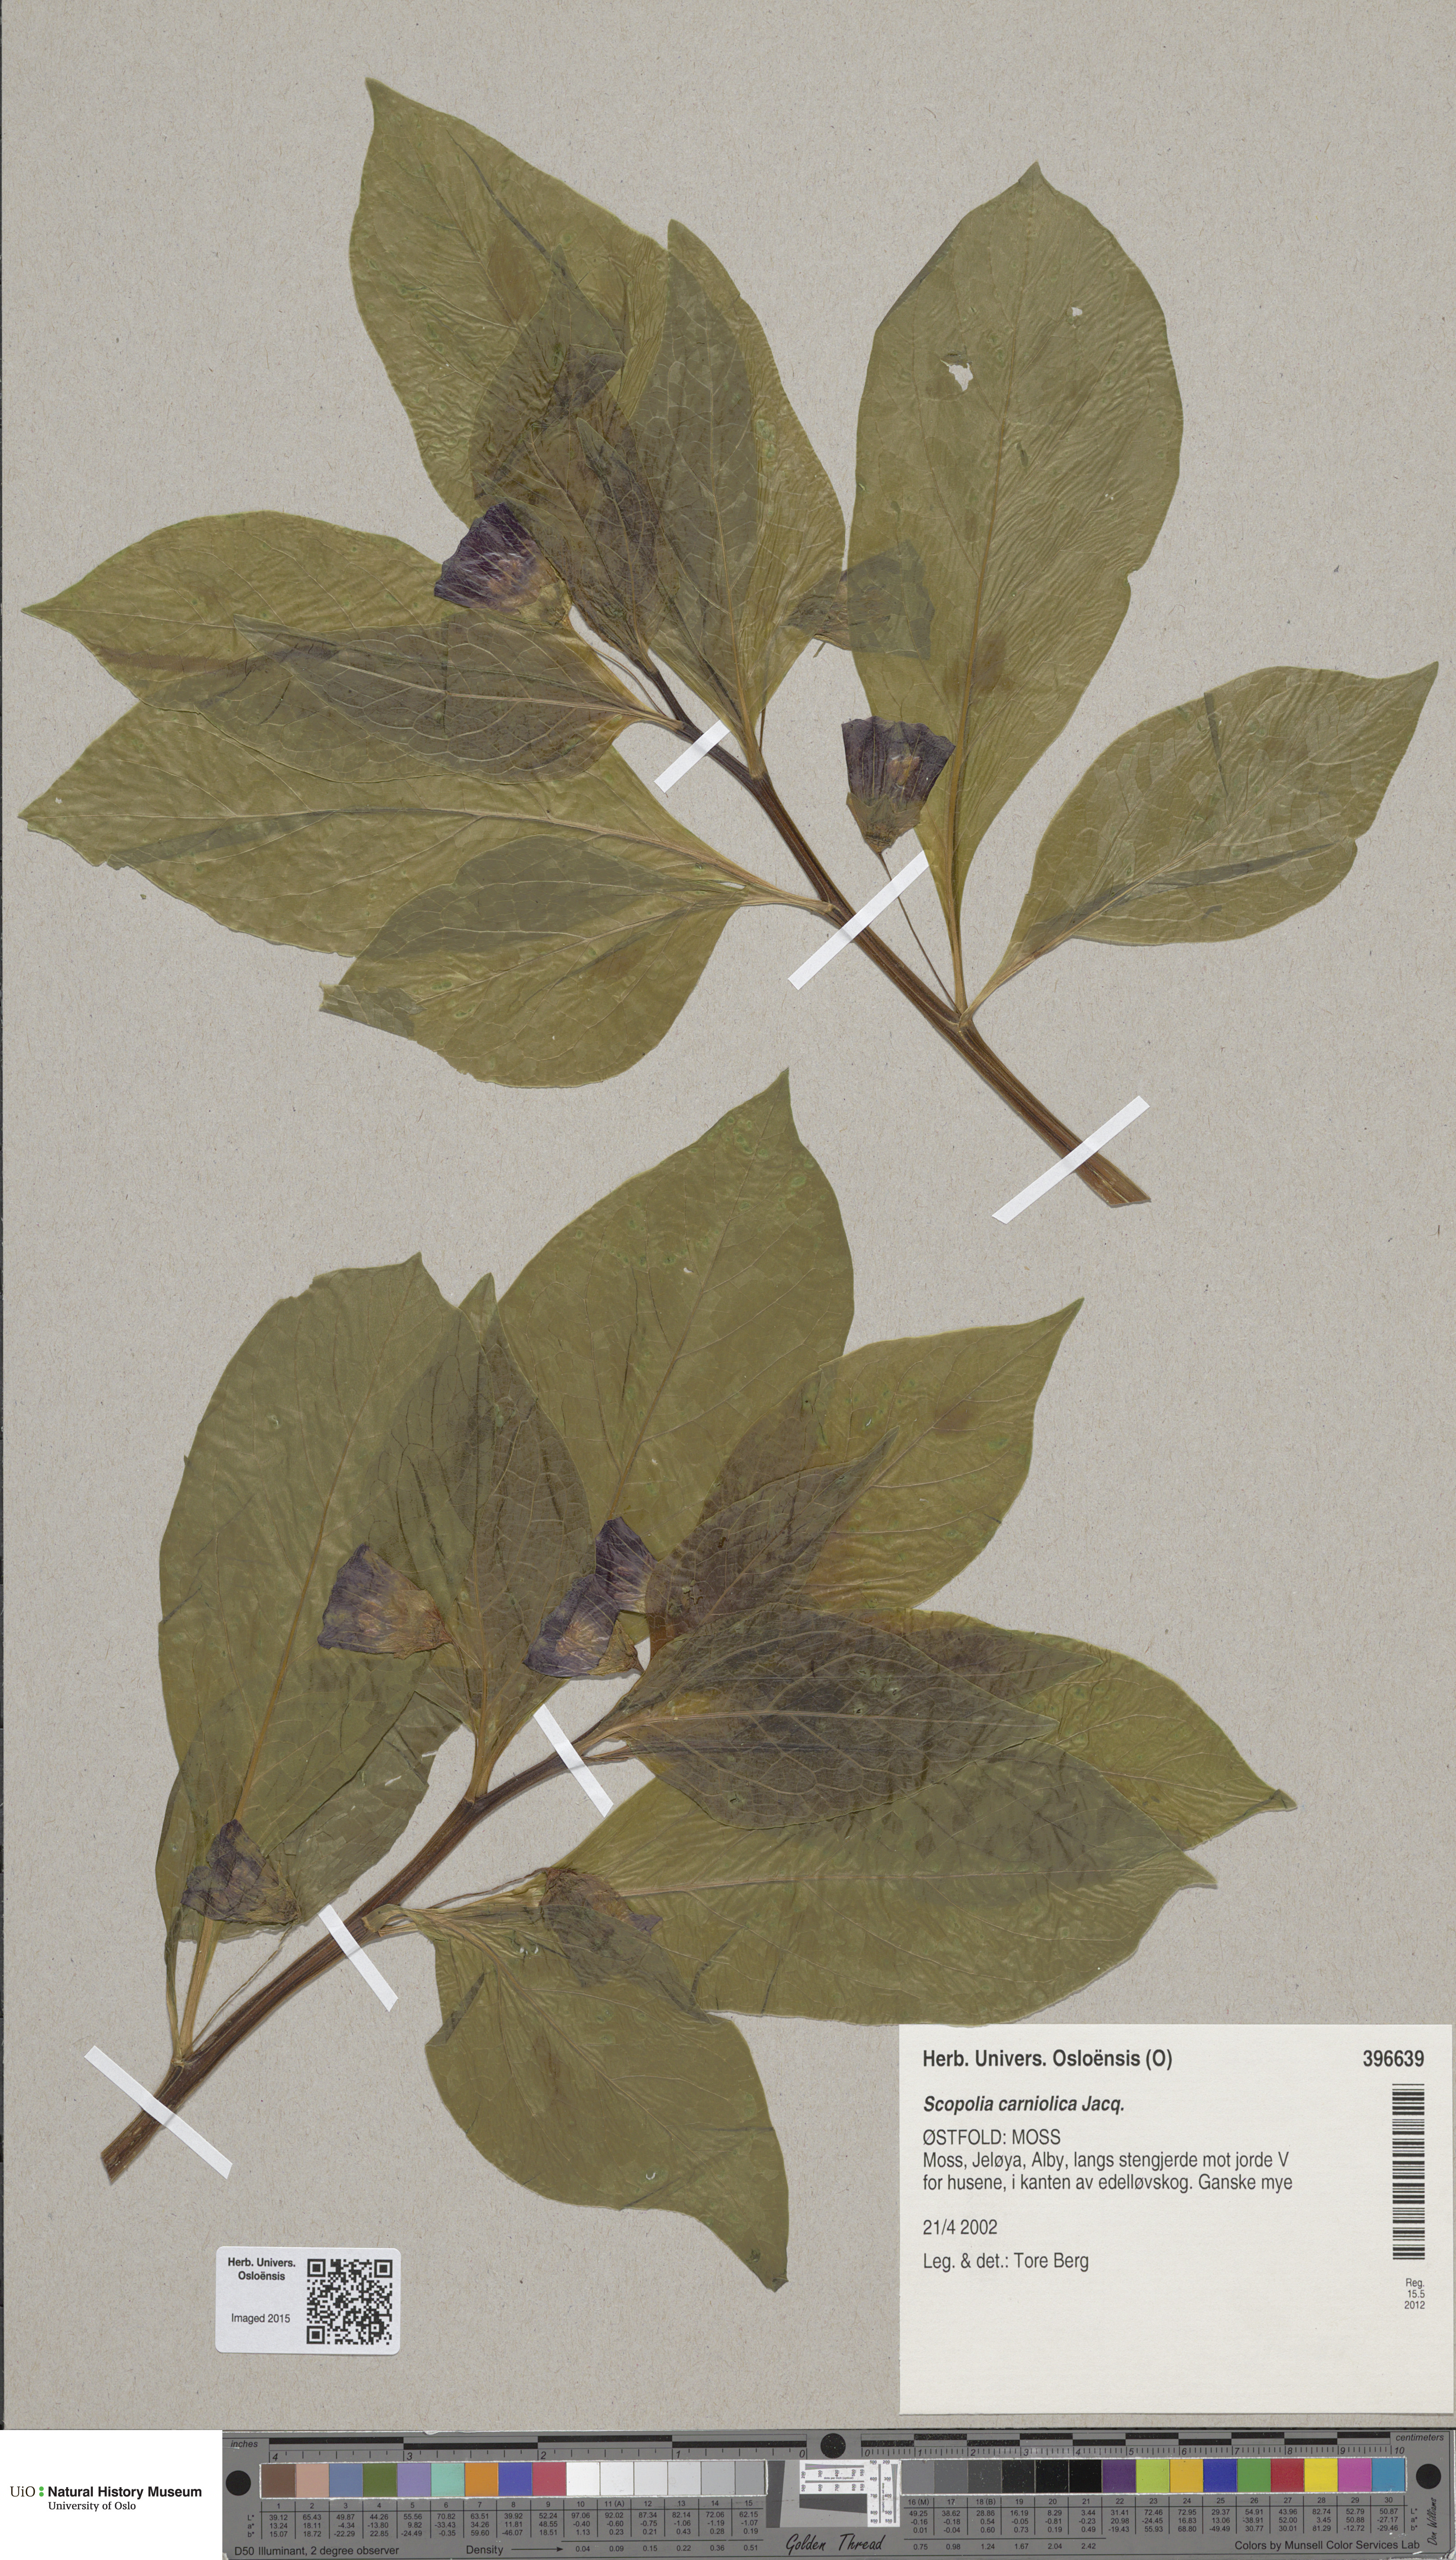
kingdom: Plantae
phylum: Tracheophyta
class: Magnoliopsida
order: Solanales
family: Solanaceae
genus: Scopolia
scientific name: Scopolia carniolica
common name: Scopolia
